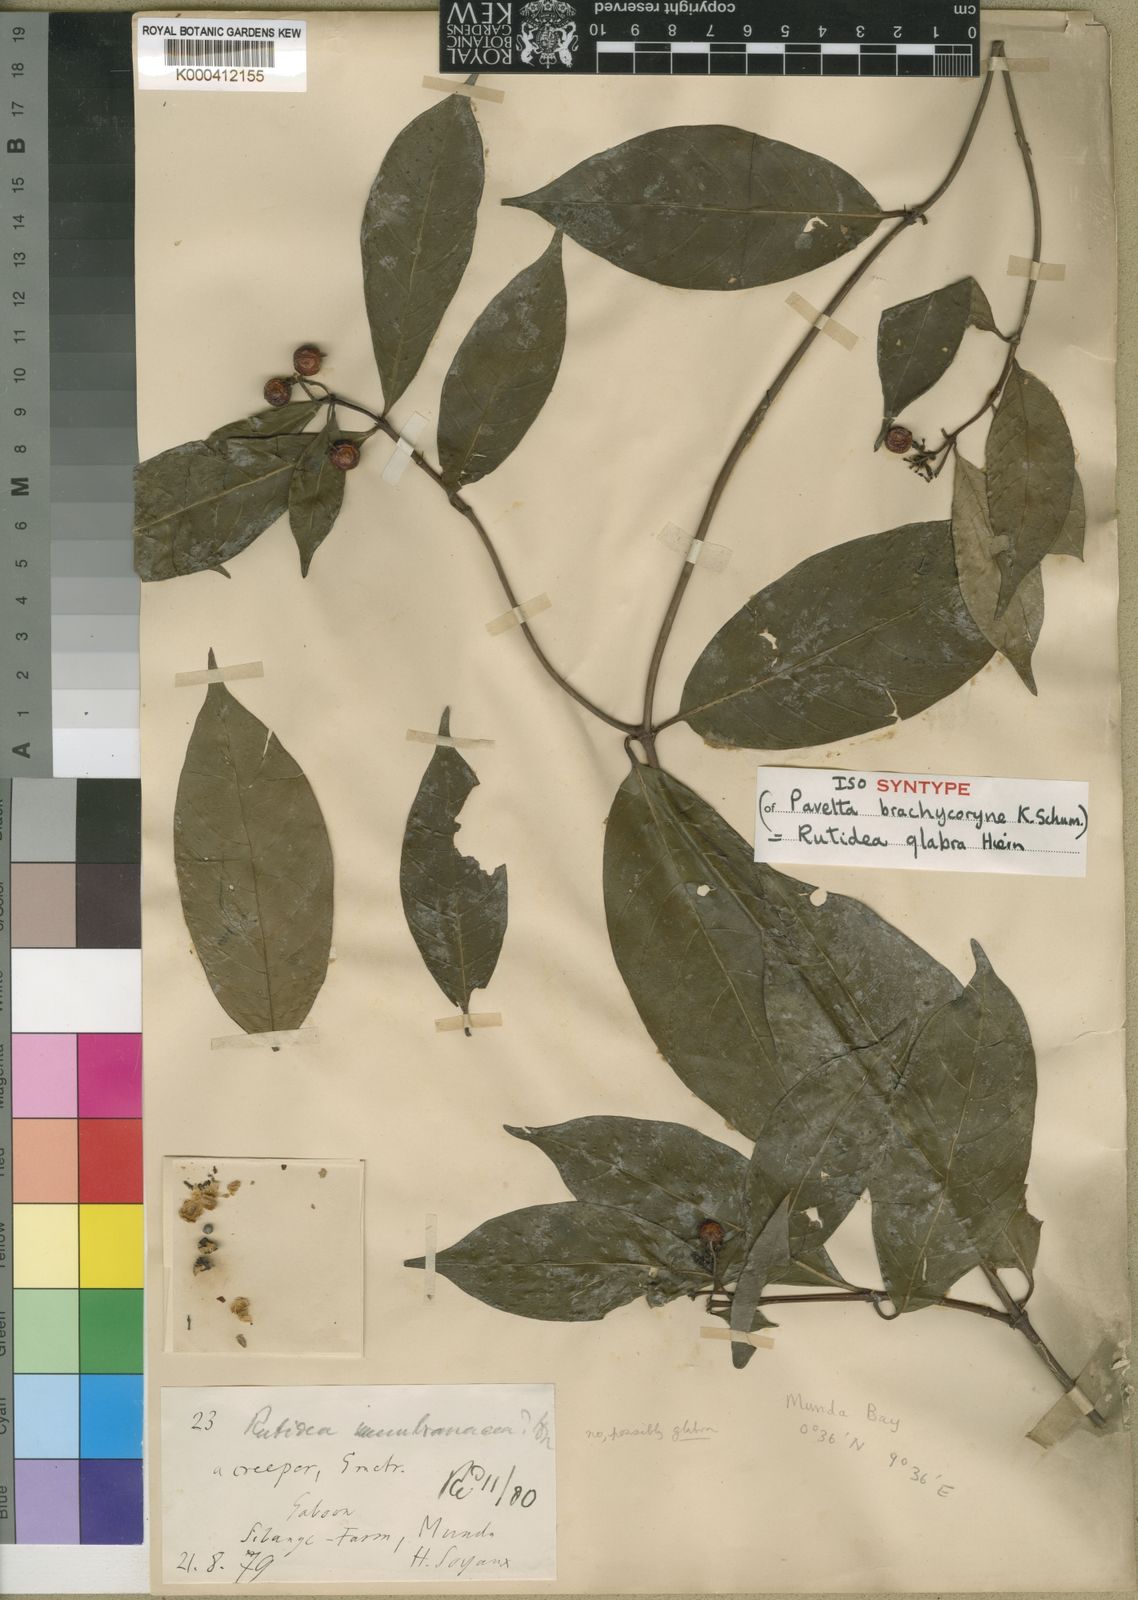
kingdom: Plantae
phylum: Tracheophyta
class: Magnoliopsida
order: Gentianales
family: Rubiaceae
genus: Rutidea
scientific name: Rutidea glabra
